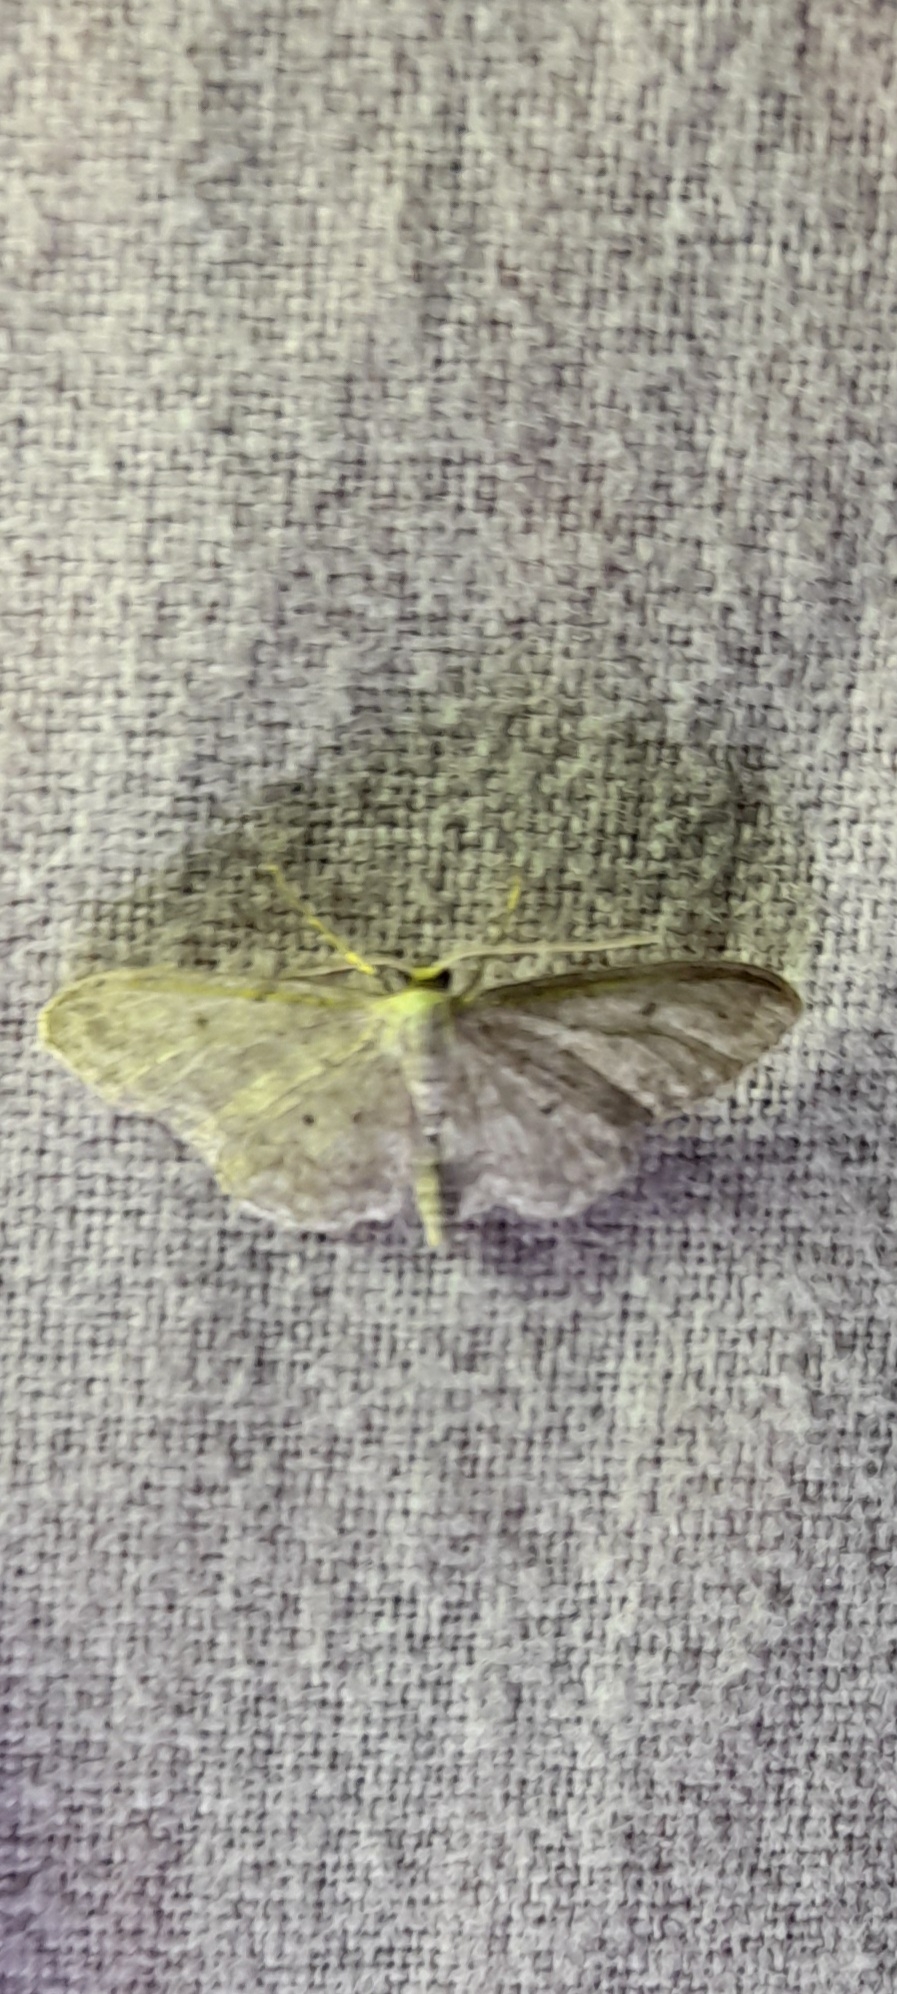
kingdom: Animalia
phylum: Arthropoda
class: Insecta
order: Lepidoptera
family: Geometridae
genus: Idaea
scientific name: Idaea seriata
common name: Gråplettet løvmåler
